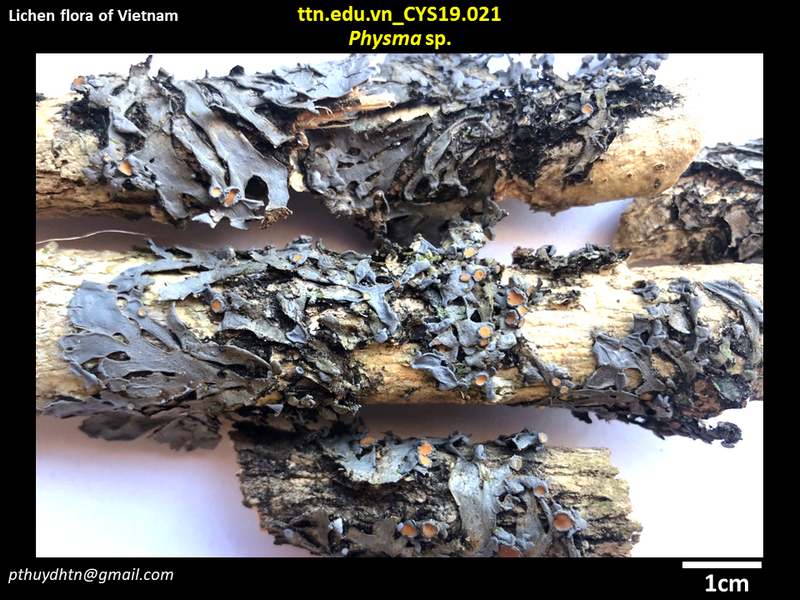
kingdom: Fungi
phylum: Ascomycota
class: Lecanoromycetes
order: Peltigerales
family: Pannariaceae
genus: Physma
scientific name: Physma
